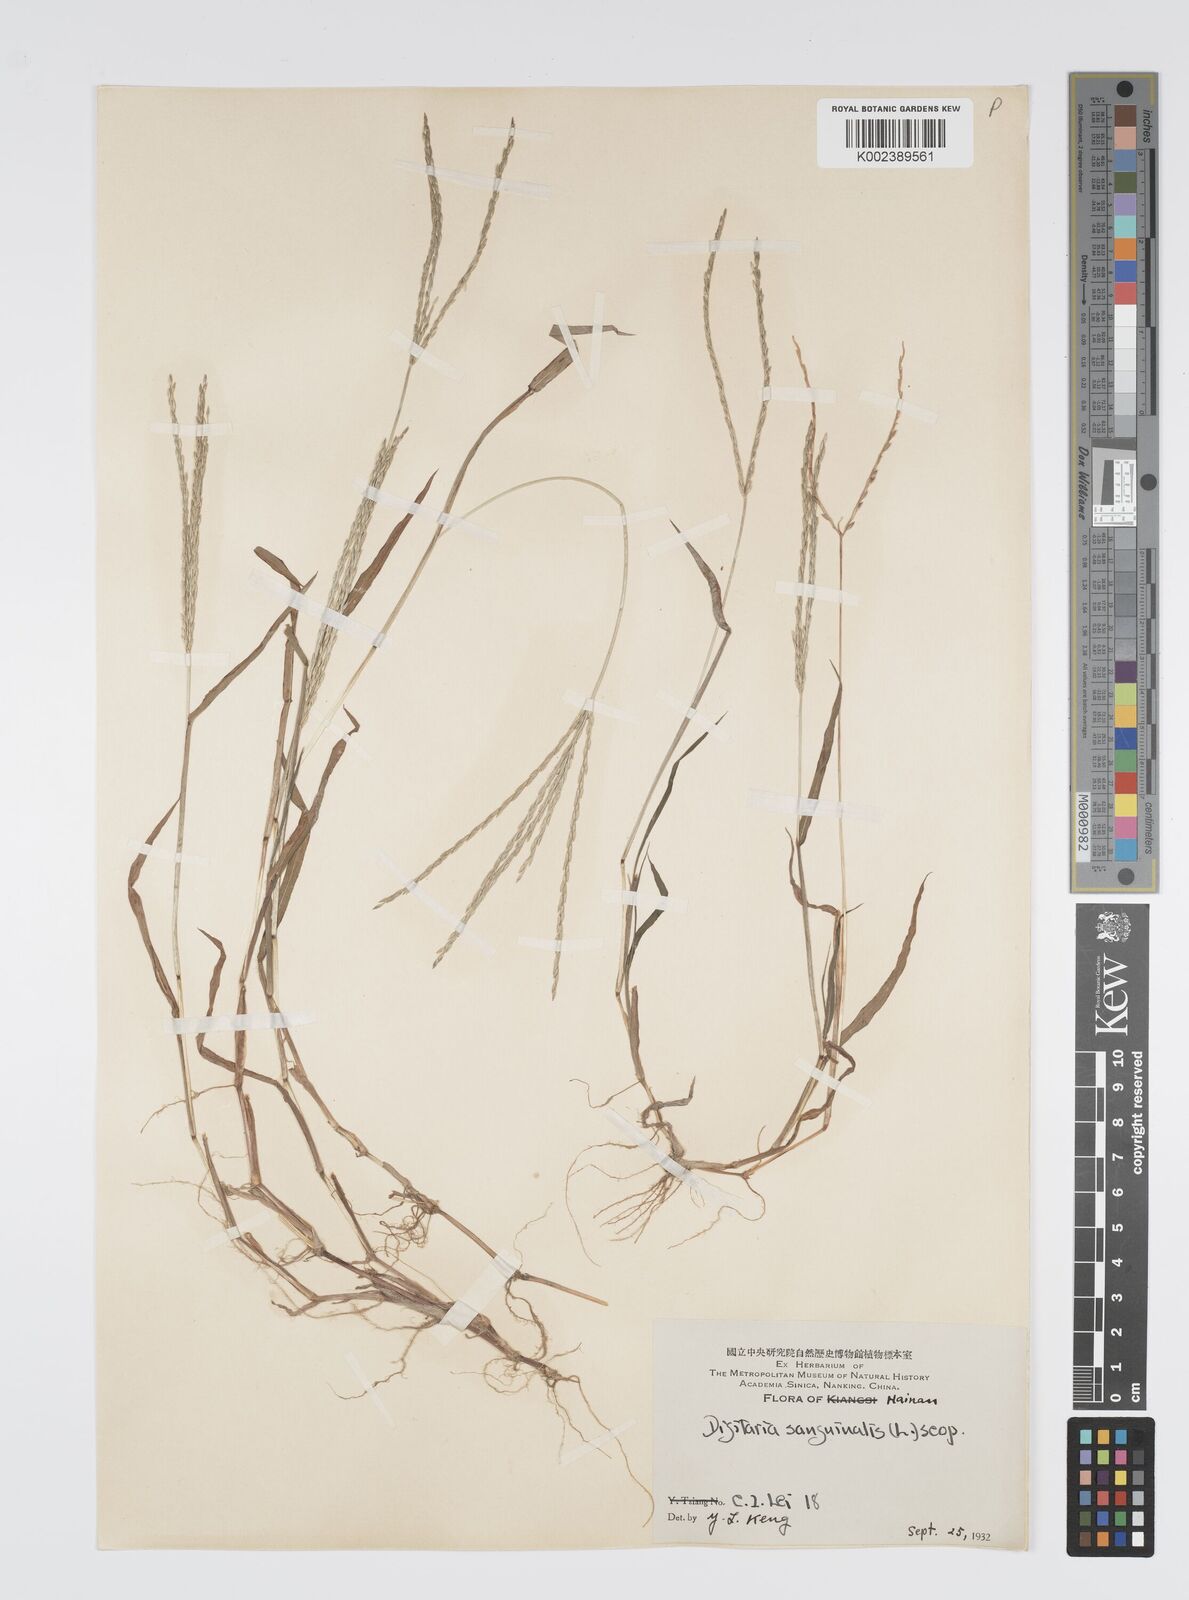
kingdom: Plantae
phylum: Tracheophyta
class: Liliopsida
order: Poales
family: Poaceae
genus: Digitaria
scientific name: Digitaria ciliaris
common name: Tropical finger-grass
